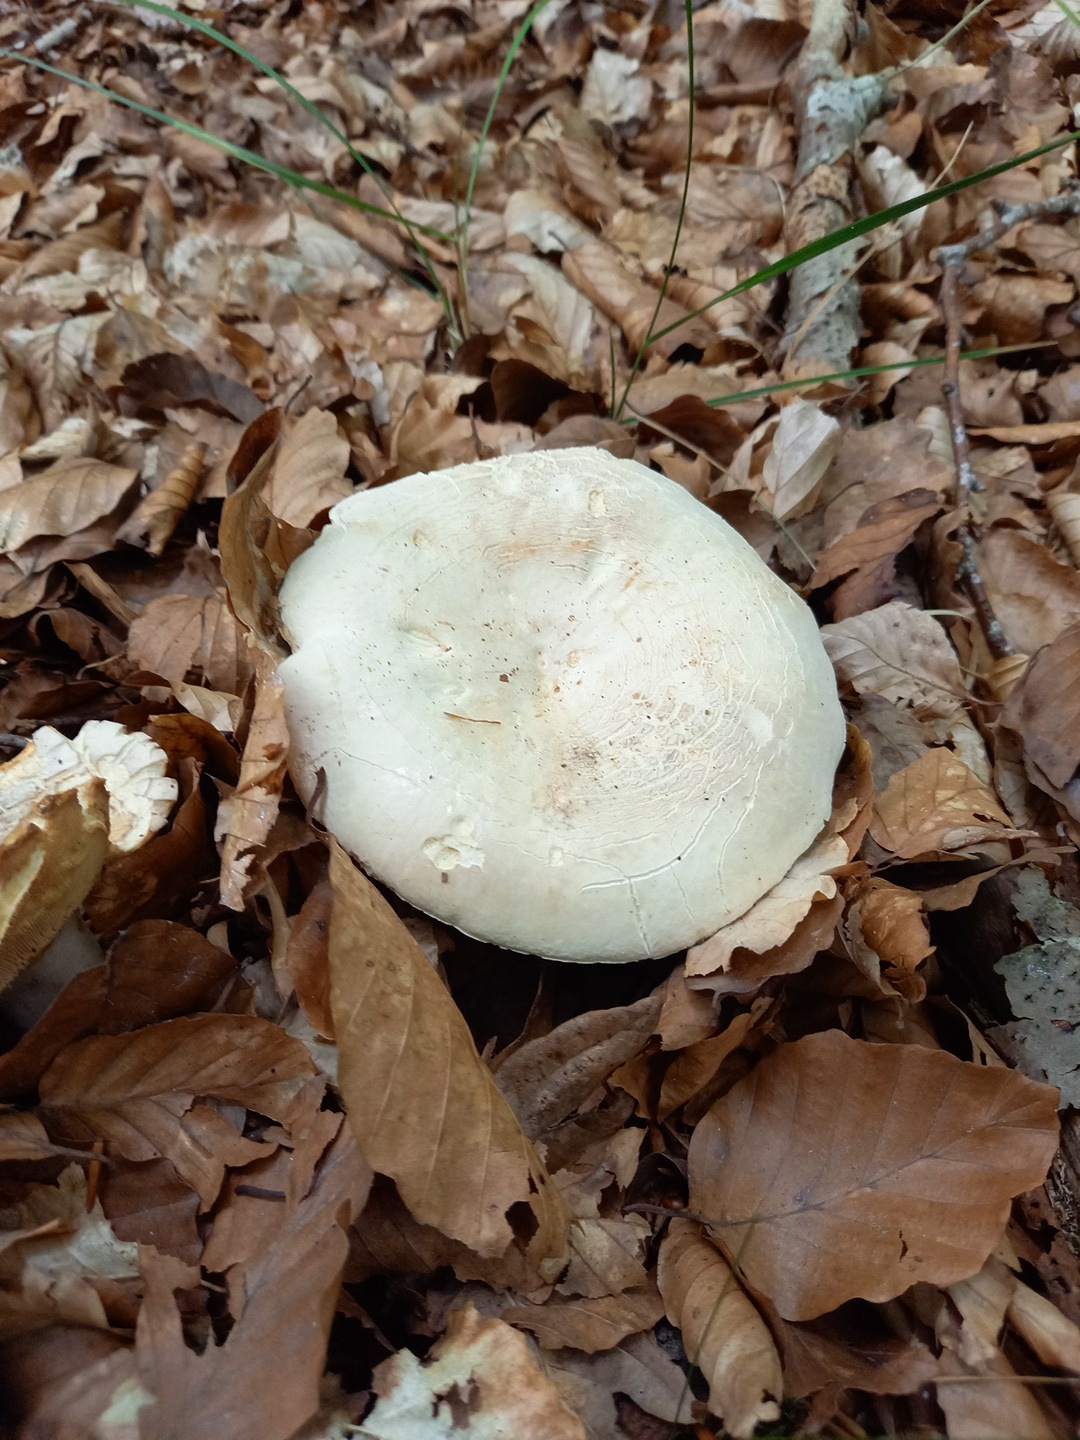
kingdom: Fungi
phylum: Basidiomycota
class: Agaricomycetes
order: Russulales
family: Russulaceae
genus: Lactifluus
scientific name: Lactifluus piperatus
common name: peber-mælkehat
